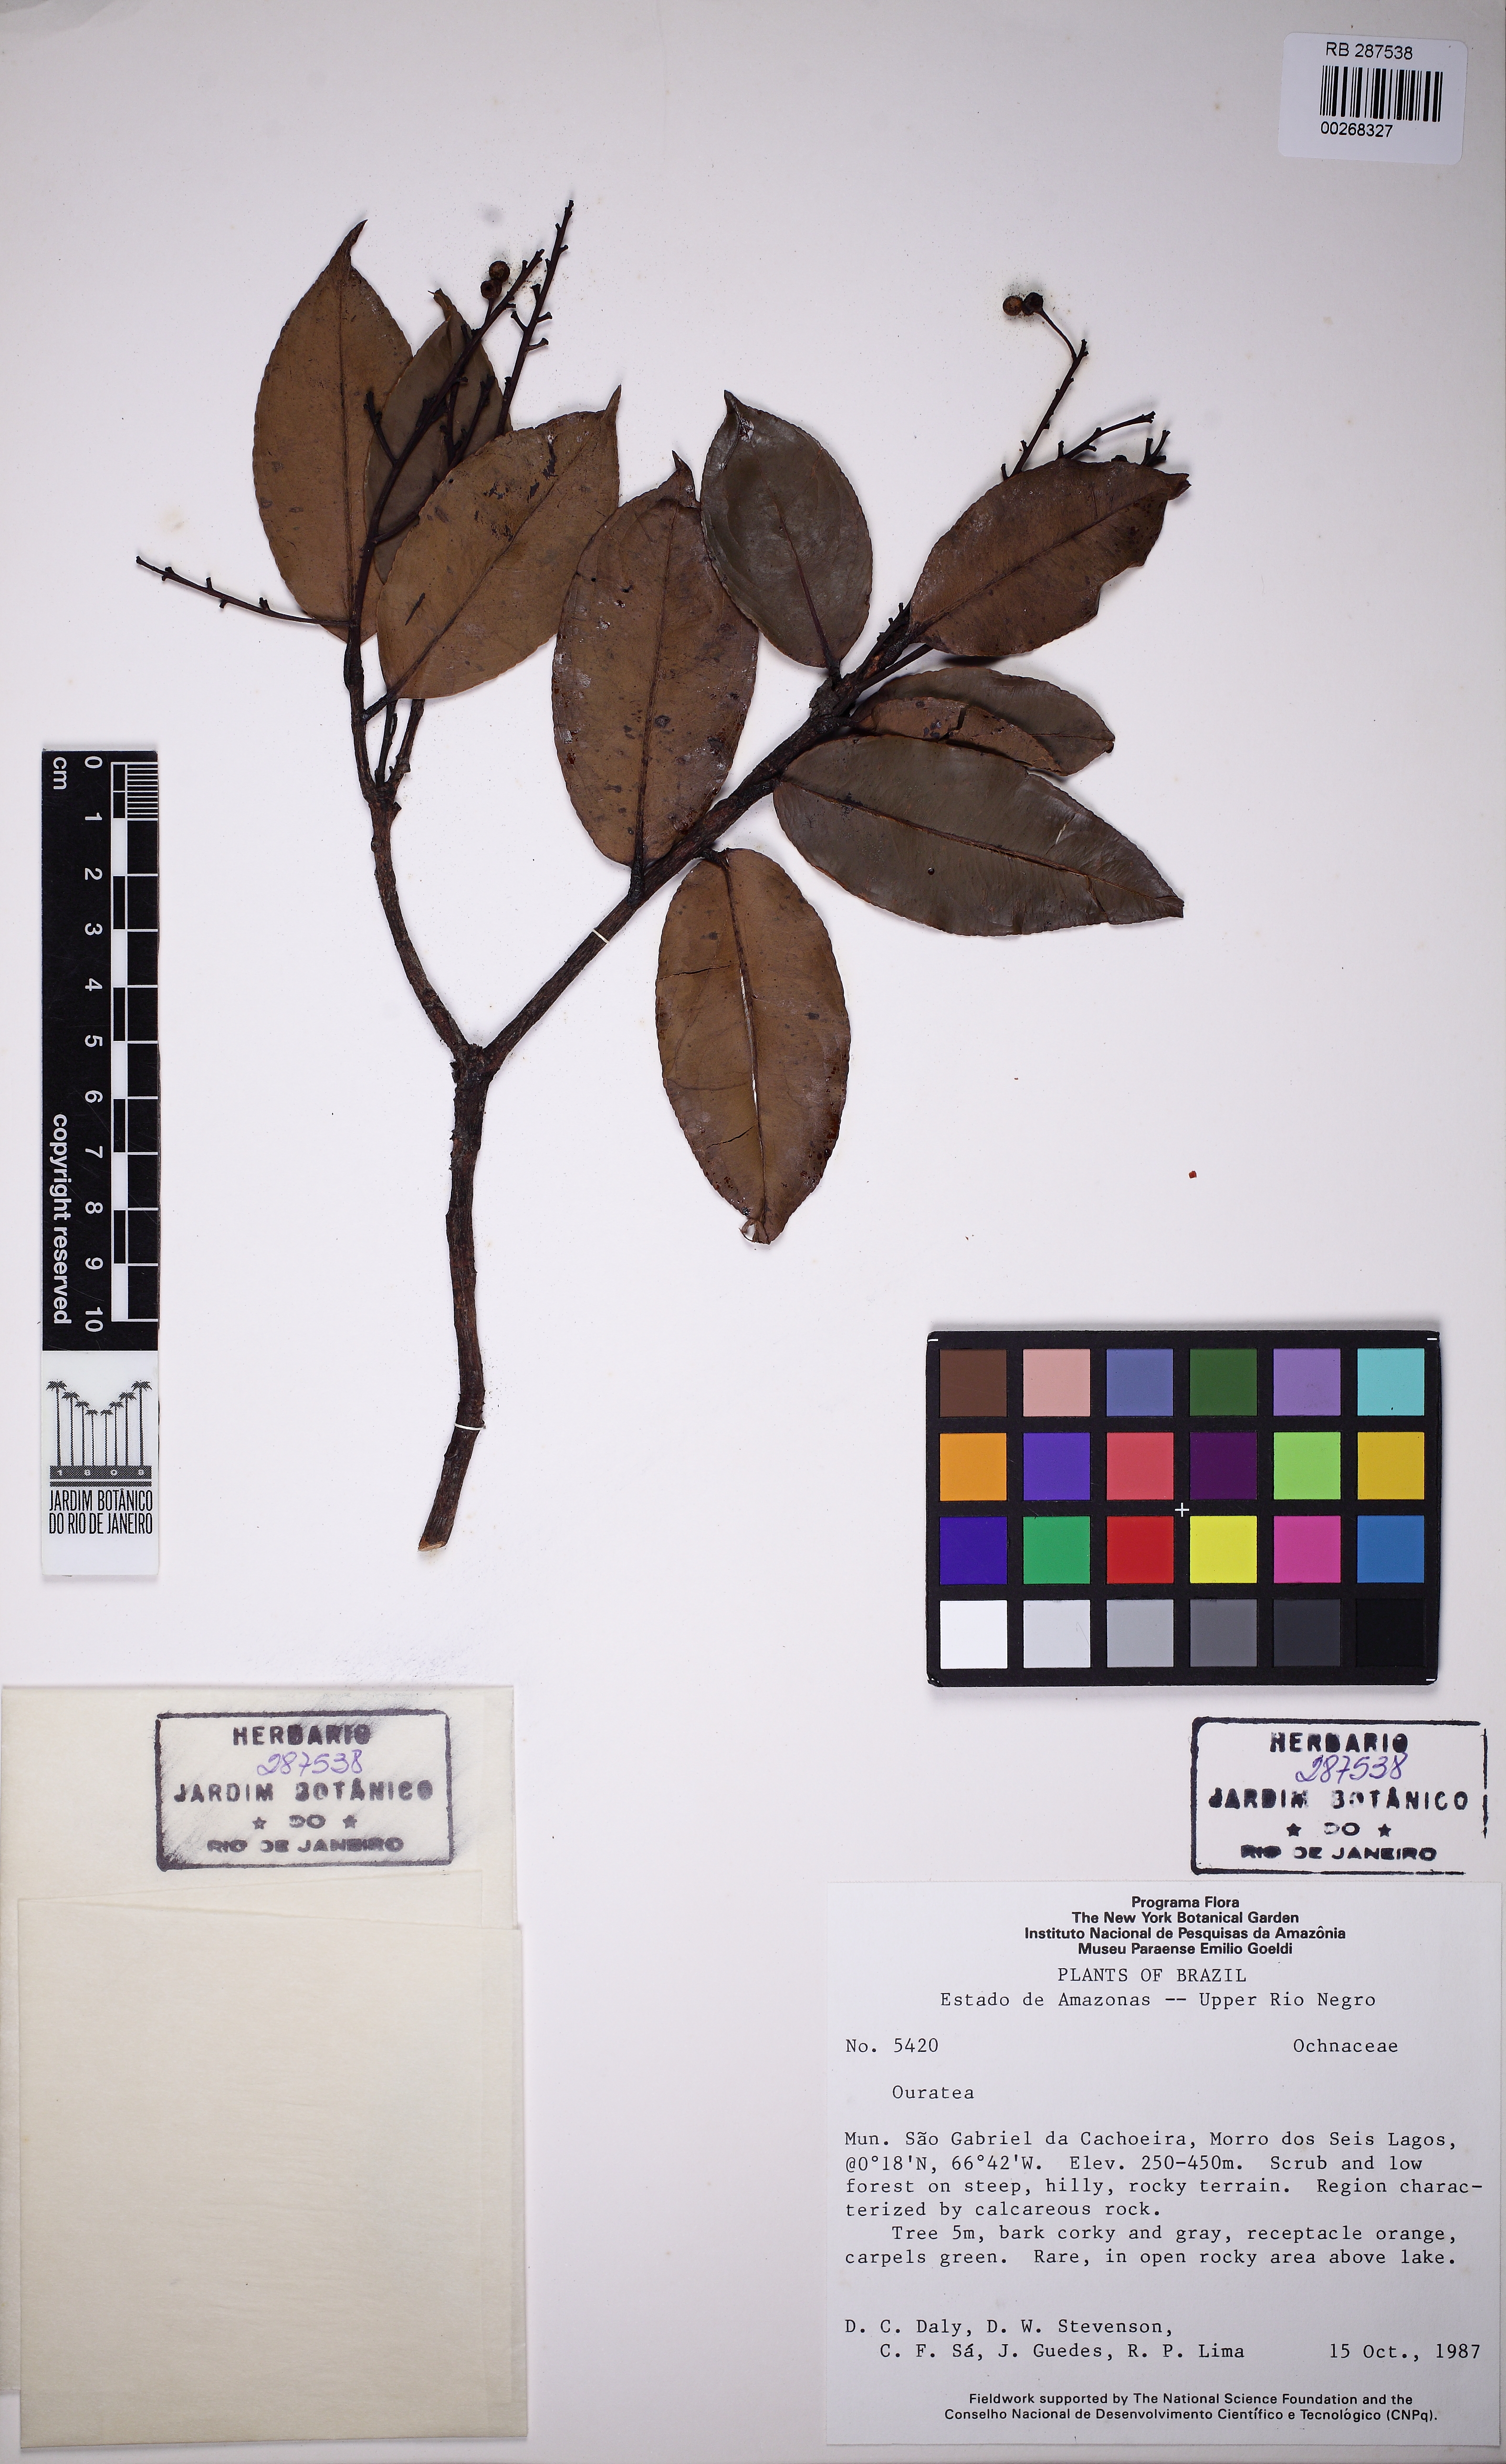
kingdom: Plantae
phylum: Tracheophyta
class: Magnoliopsida
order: Malpighiales
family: Ochnaceae
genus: Ouratea
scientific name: Ouratea
